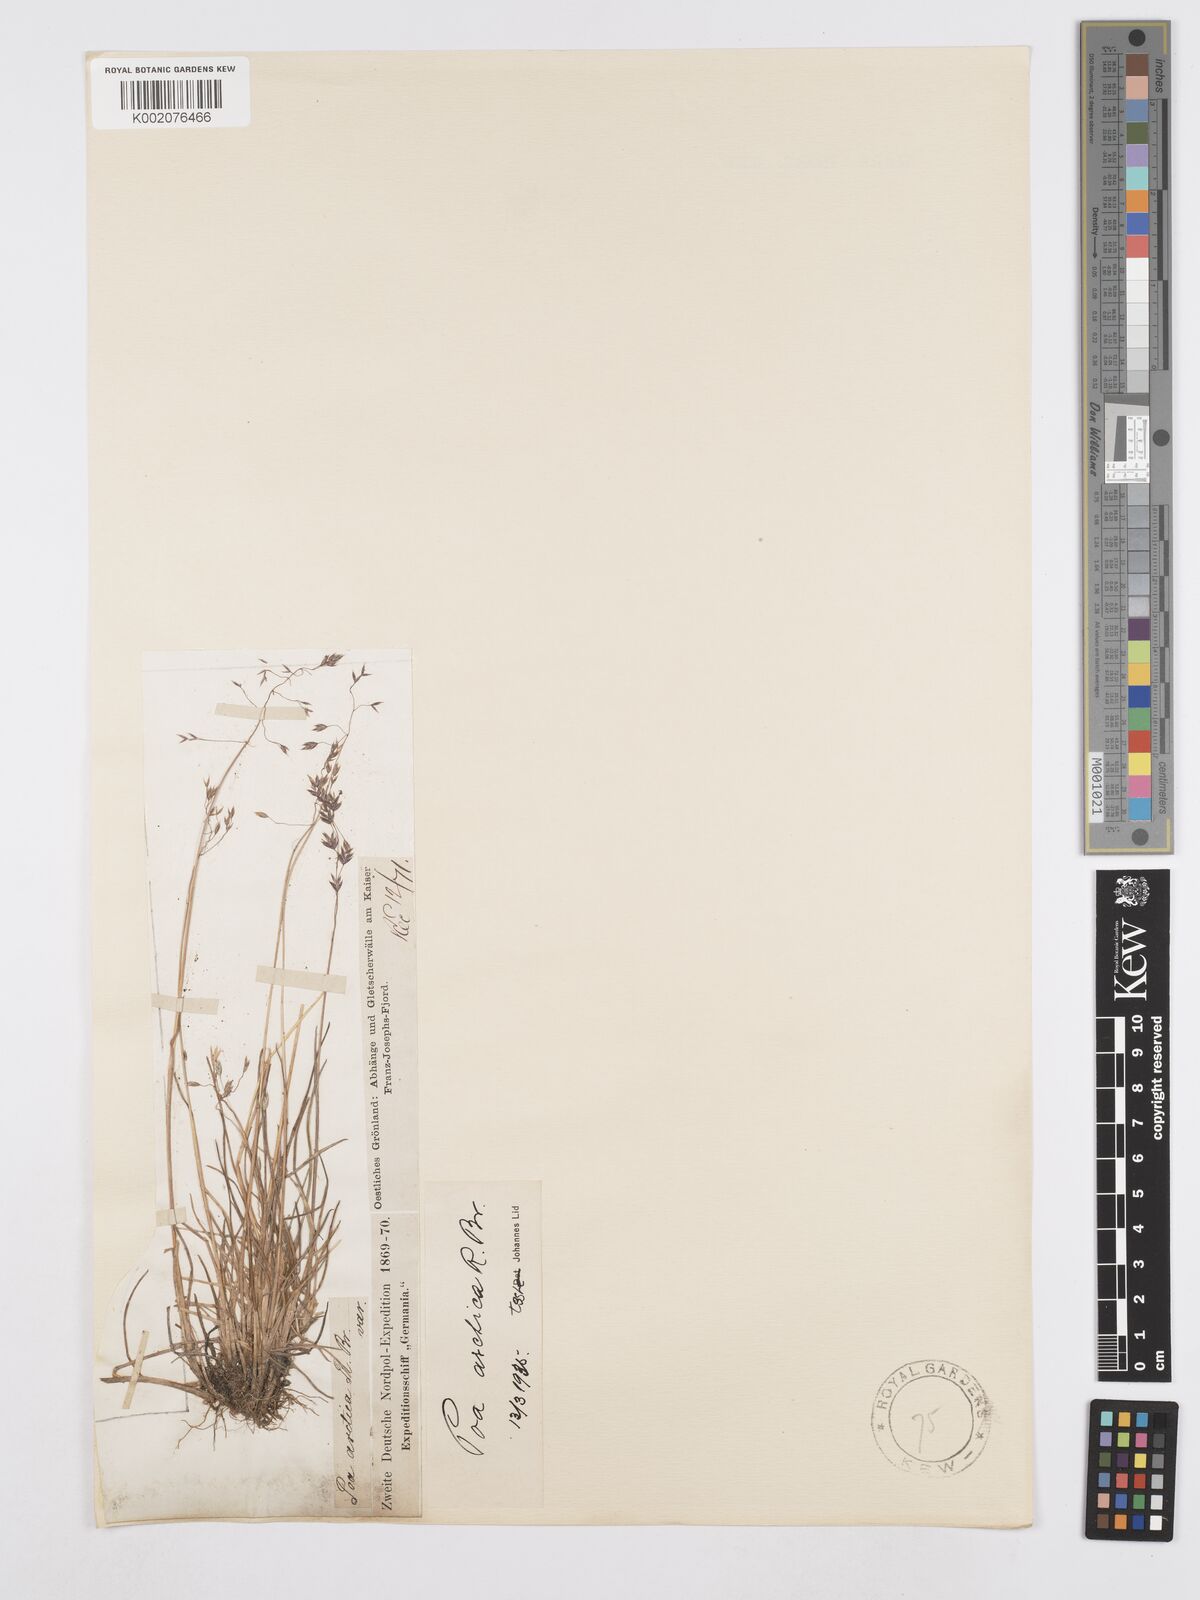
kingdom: Plantae
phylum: Tracheophyta
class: Liliopsida
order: Poales
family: Poaceae
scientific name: Poaceae
